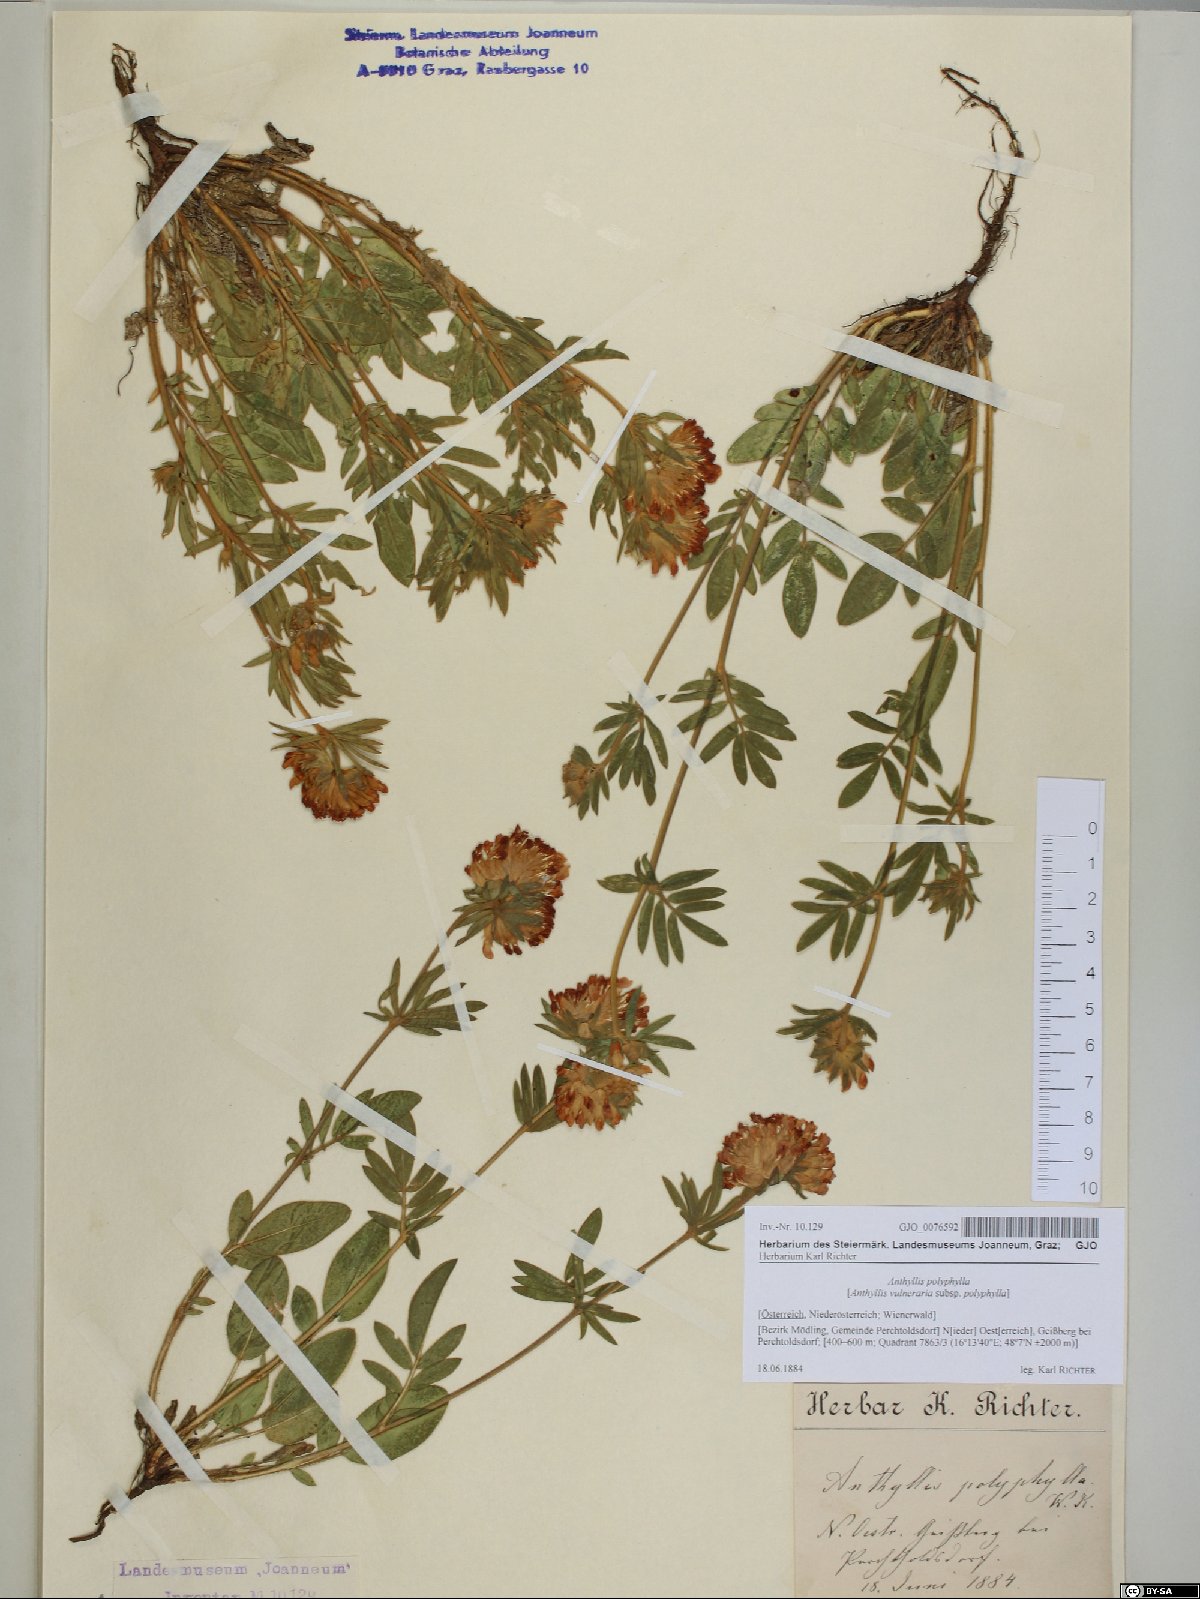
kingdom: Plantae
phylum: Tracheophyta
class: Magnoliopsida
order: Fabales
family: Fabaceae
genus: Anthyllis
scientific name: Anthyllis vulneraria
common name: Kidney vetch
